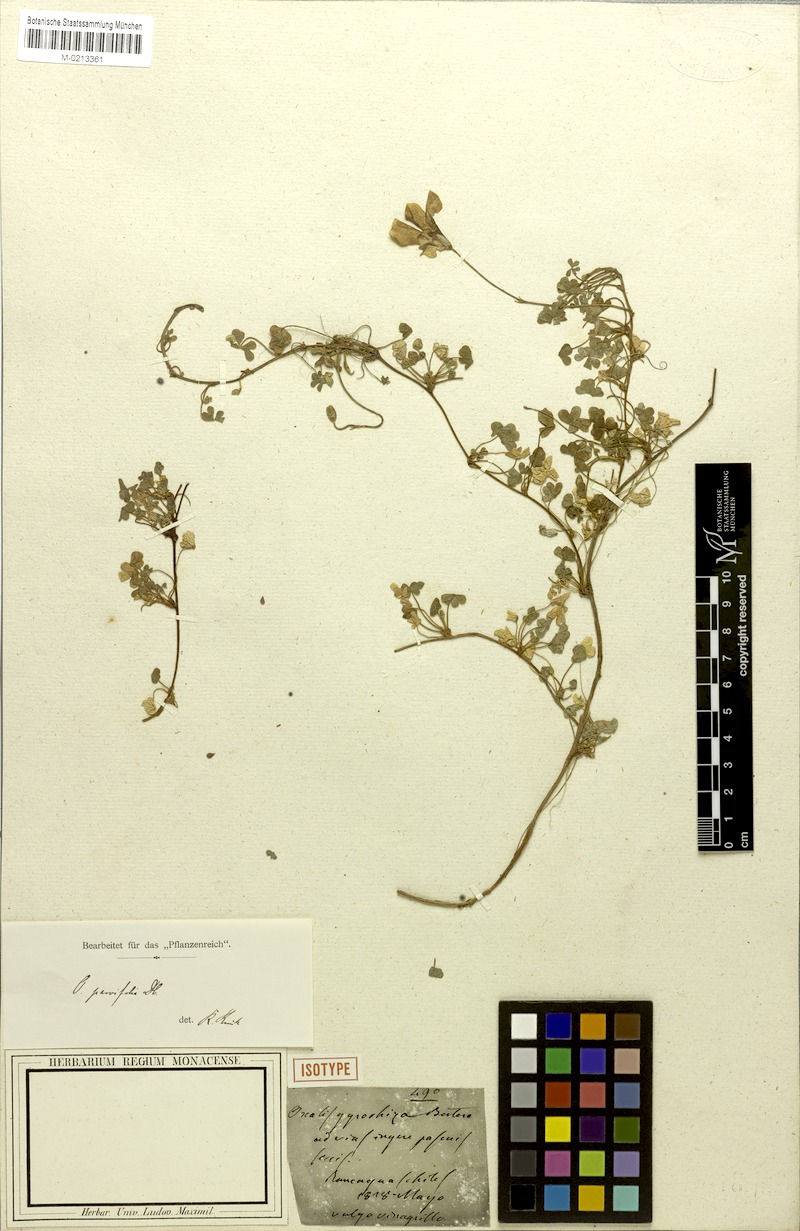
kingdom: Plantae
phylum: Tracheophyta
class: Magnoliopsida
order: Oxalidales
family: Oxalidaceae
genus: Oxalis
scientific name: Oxalis gyrorhiza
